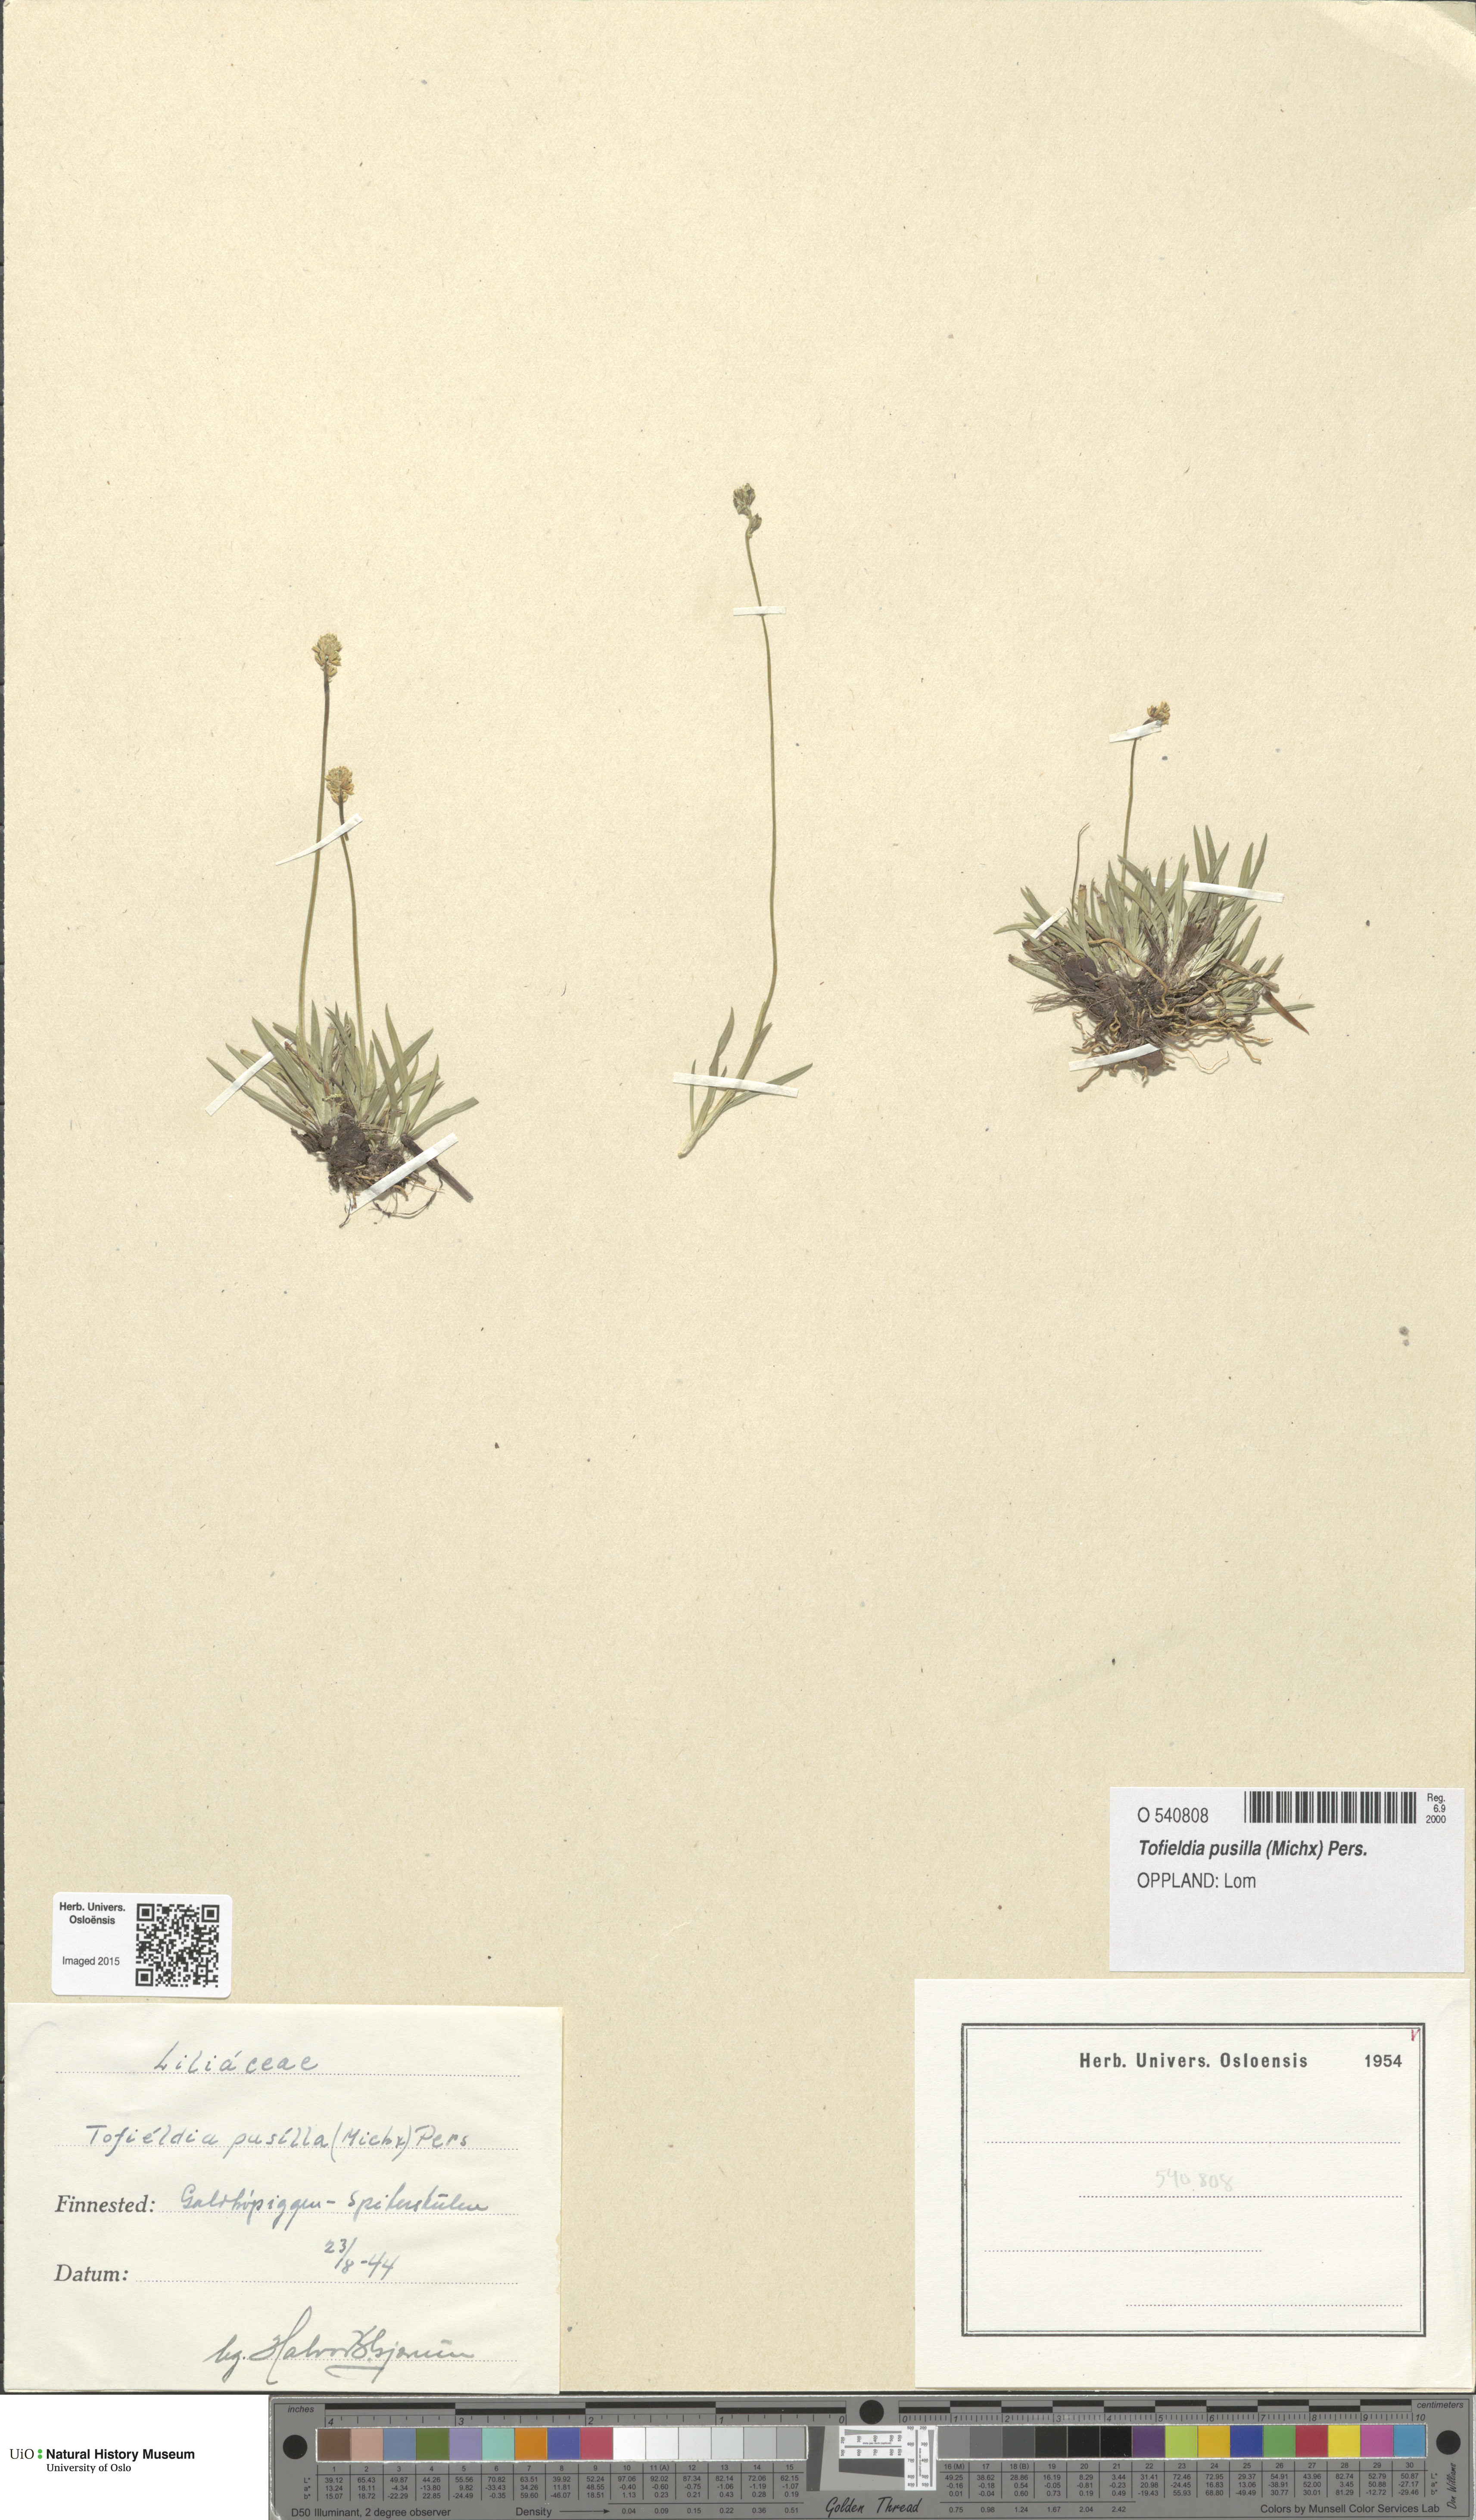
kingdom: Plantae
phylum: Tracheophyta
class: Liliopsida
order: Alismatales
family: Tofieldiaceae
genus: Tofieldia
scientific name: Tofieldia pusilla
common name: Scottish false asphodel
